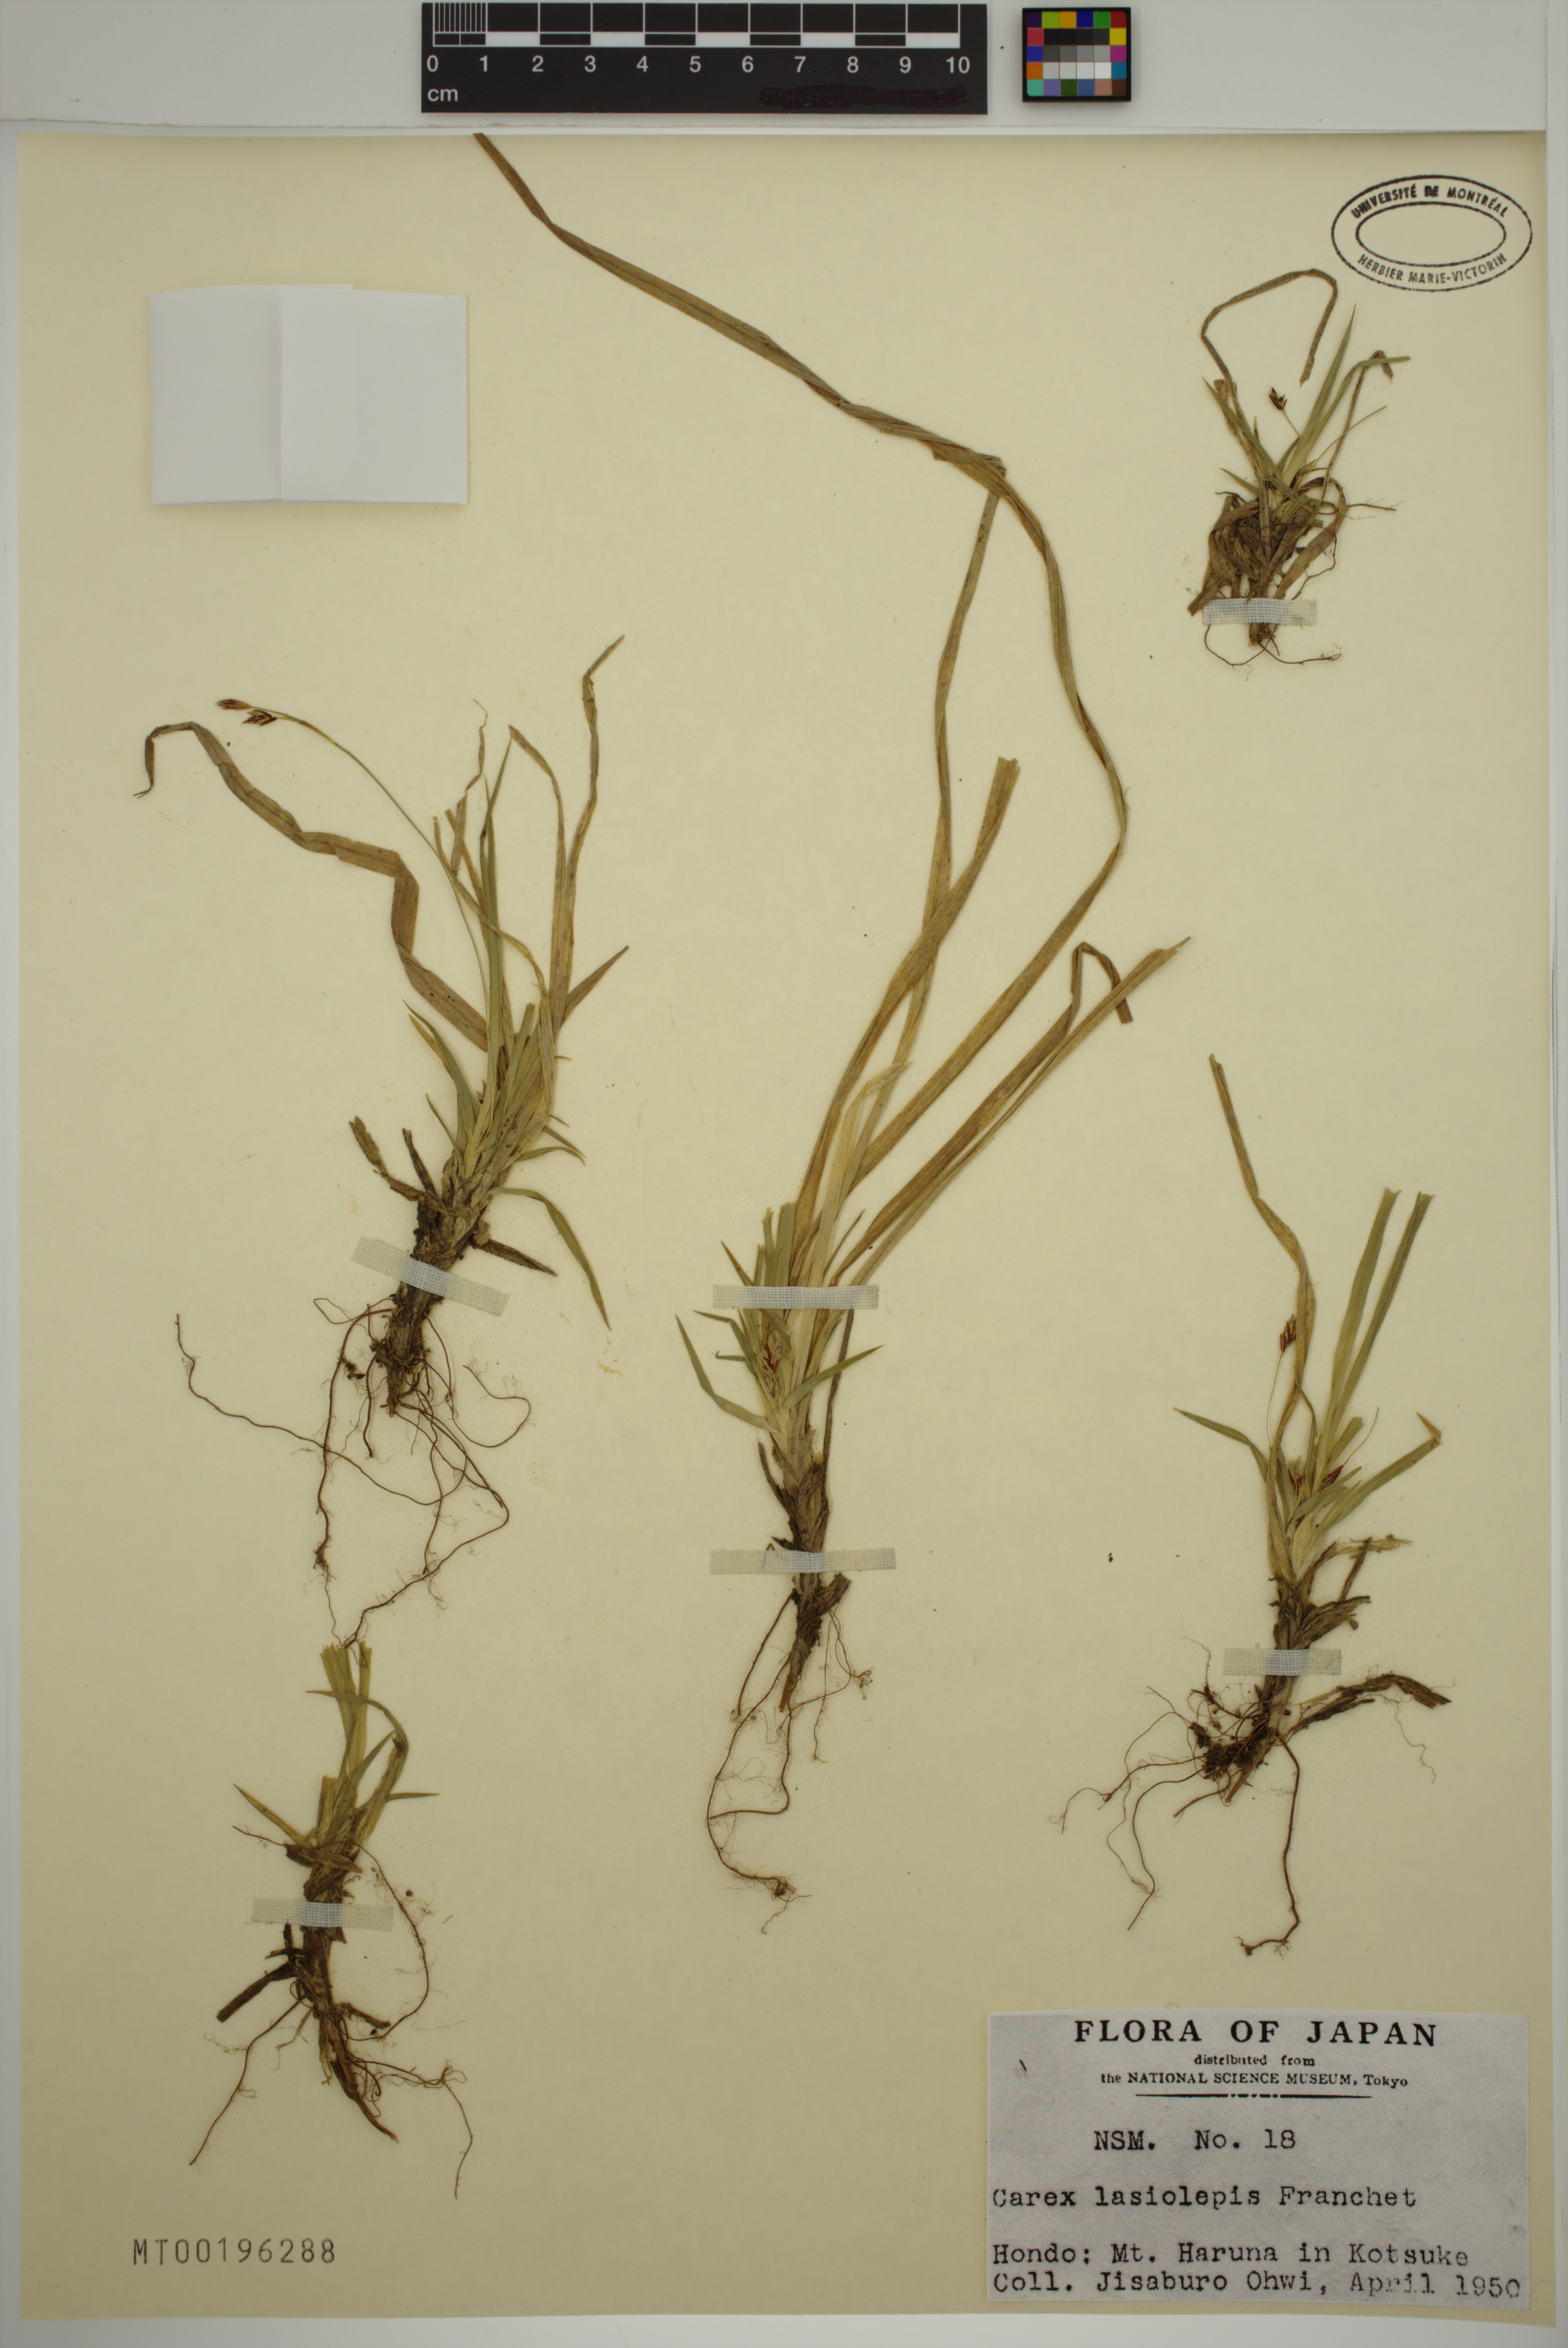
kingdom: Plantae
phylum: Tracheophyta
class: Liliopsida
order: Poales
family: Cyperaceae
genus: Carex
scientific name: Carex lasiolepis
